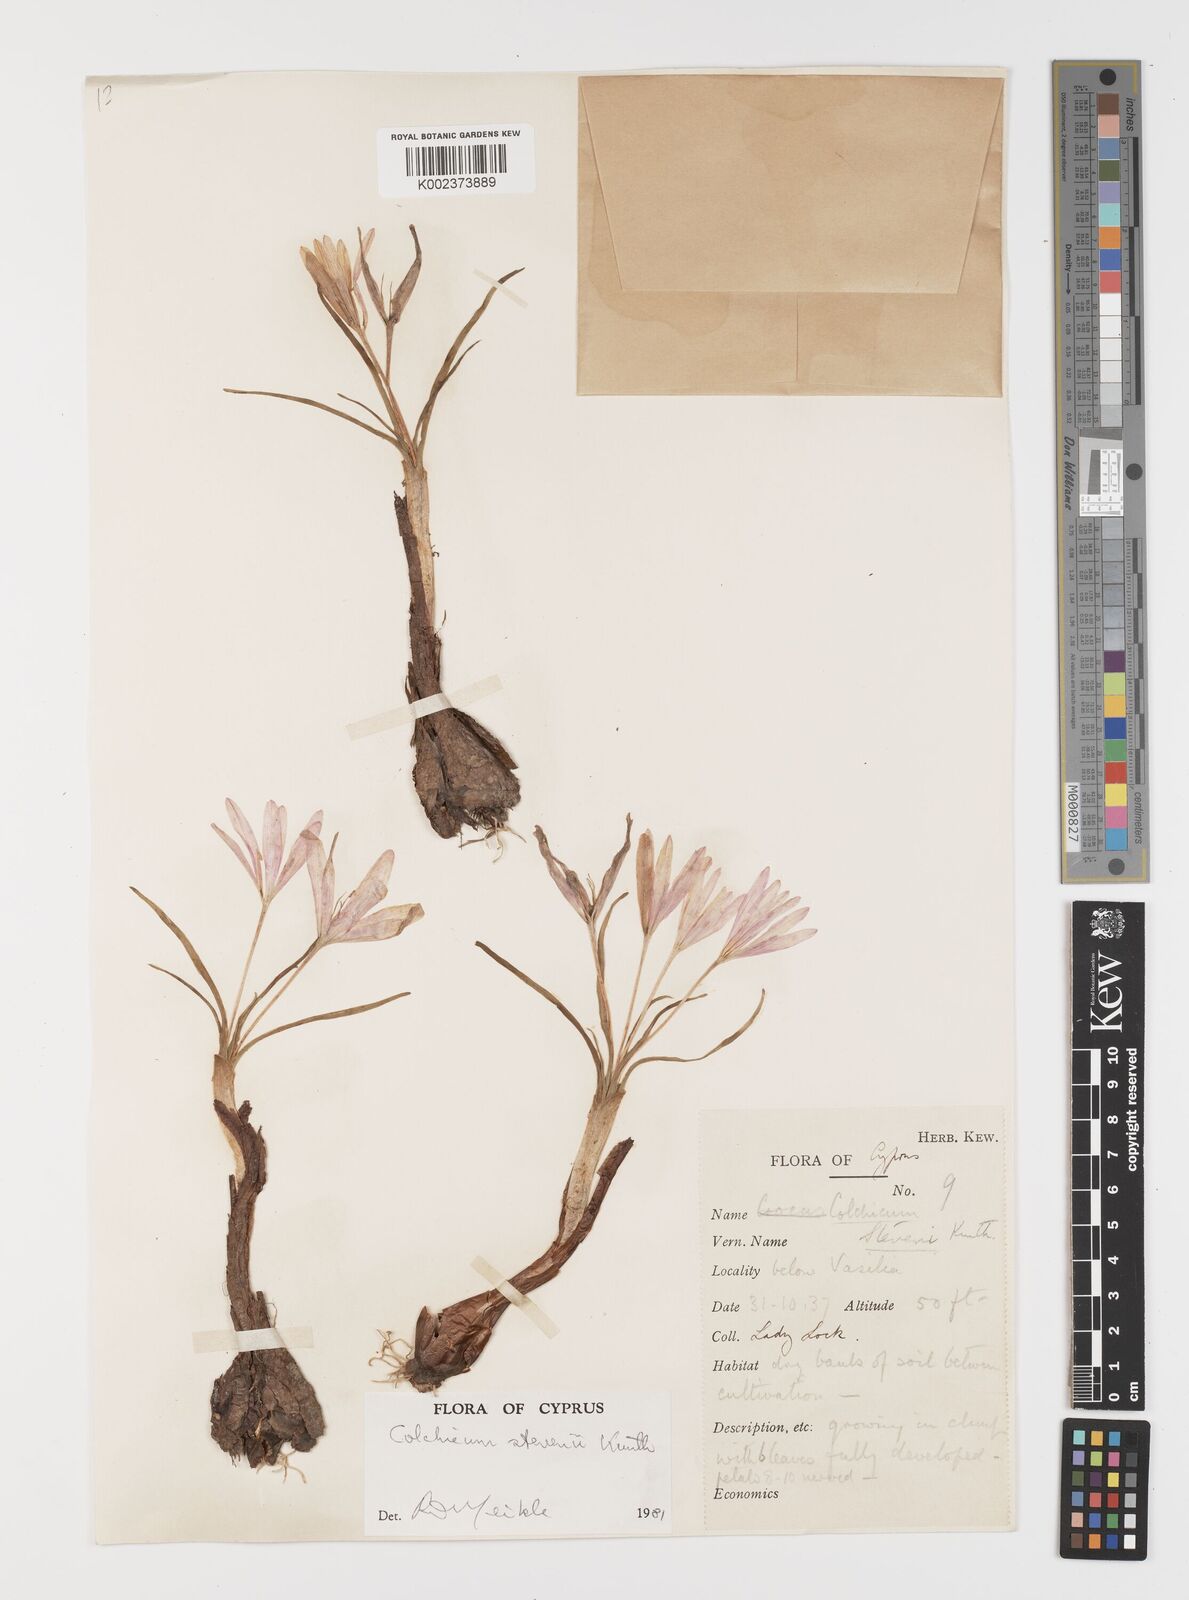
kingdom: Plantae
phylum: Tracheophyta
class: Liliopsida
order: Liliales
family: Colchicaceae
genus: Colchicum
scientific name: Colchicum stevenii
